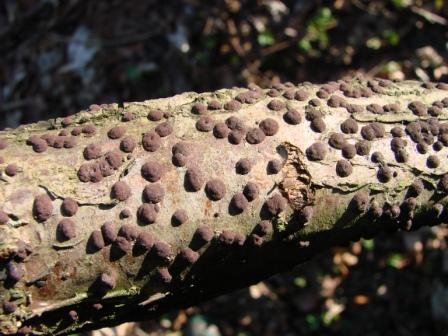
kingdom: Fungi
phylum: Ascomycota
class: Sordariomycetes
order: Xylariales
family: Hypoxylaceae
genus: Hypoxylon
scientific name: Hypoxylon fuscum
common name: kegleformet kulbær
